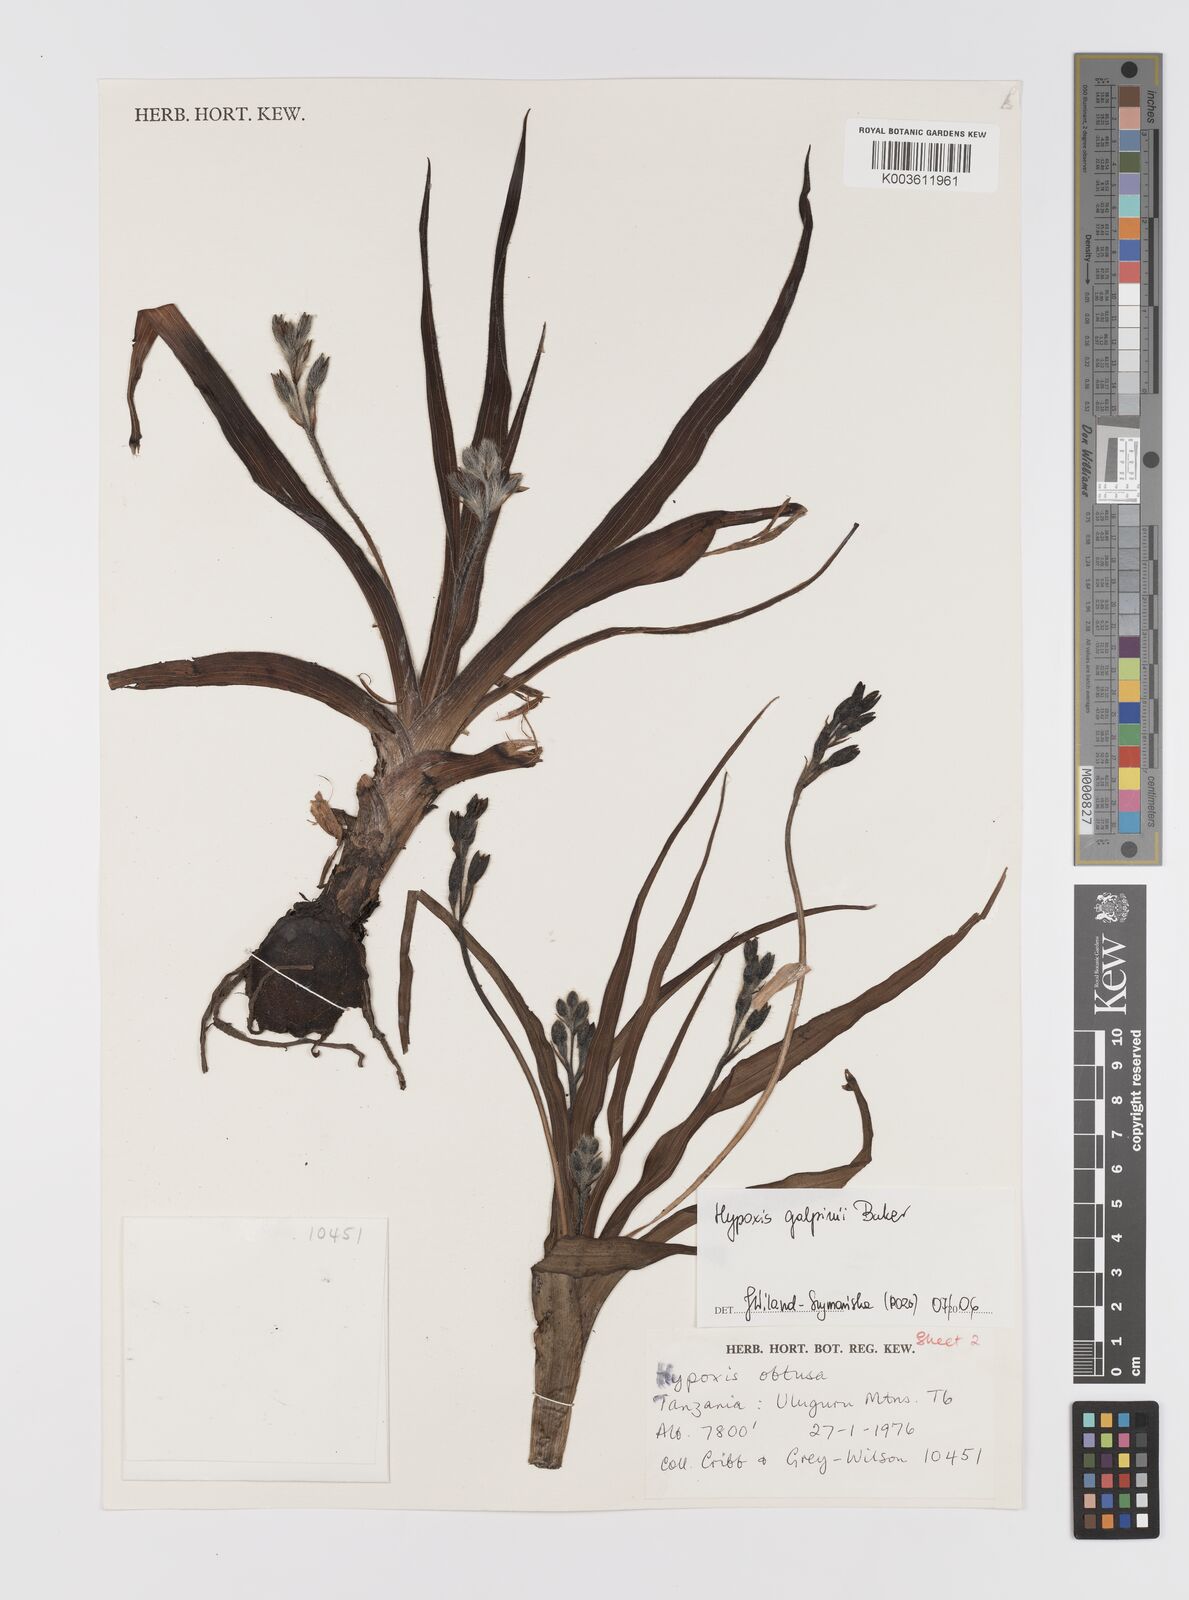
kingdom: Plantae
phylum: Tracheophyta
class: Liliopsida
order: Asparagales
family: Hypoxidaceae
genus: Hypoxis
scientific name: Hypoxis galpinii
